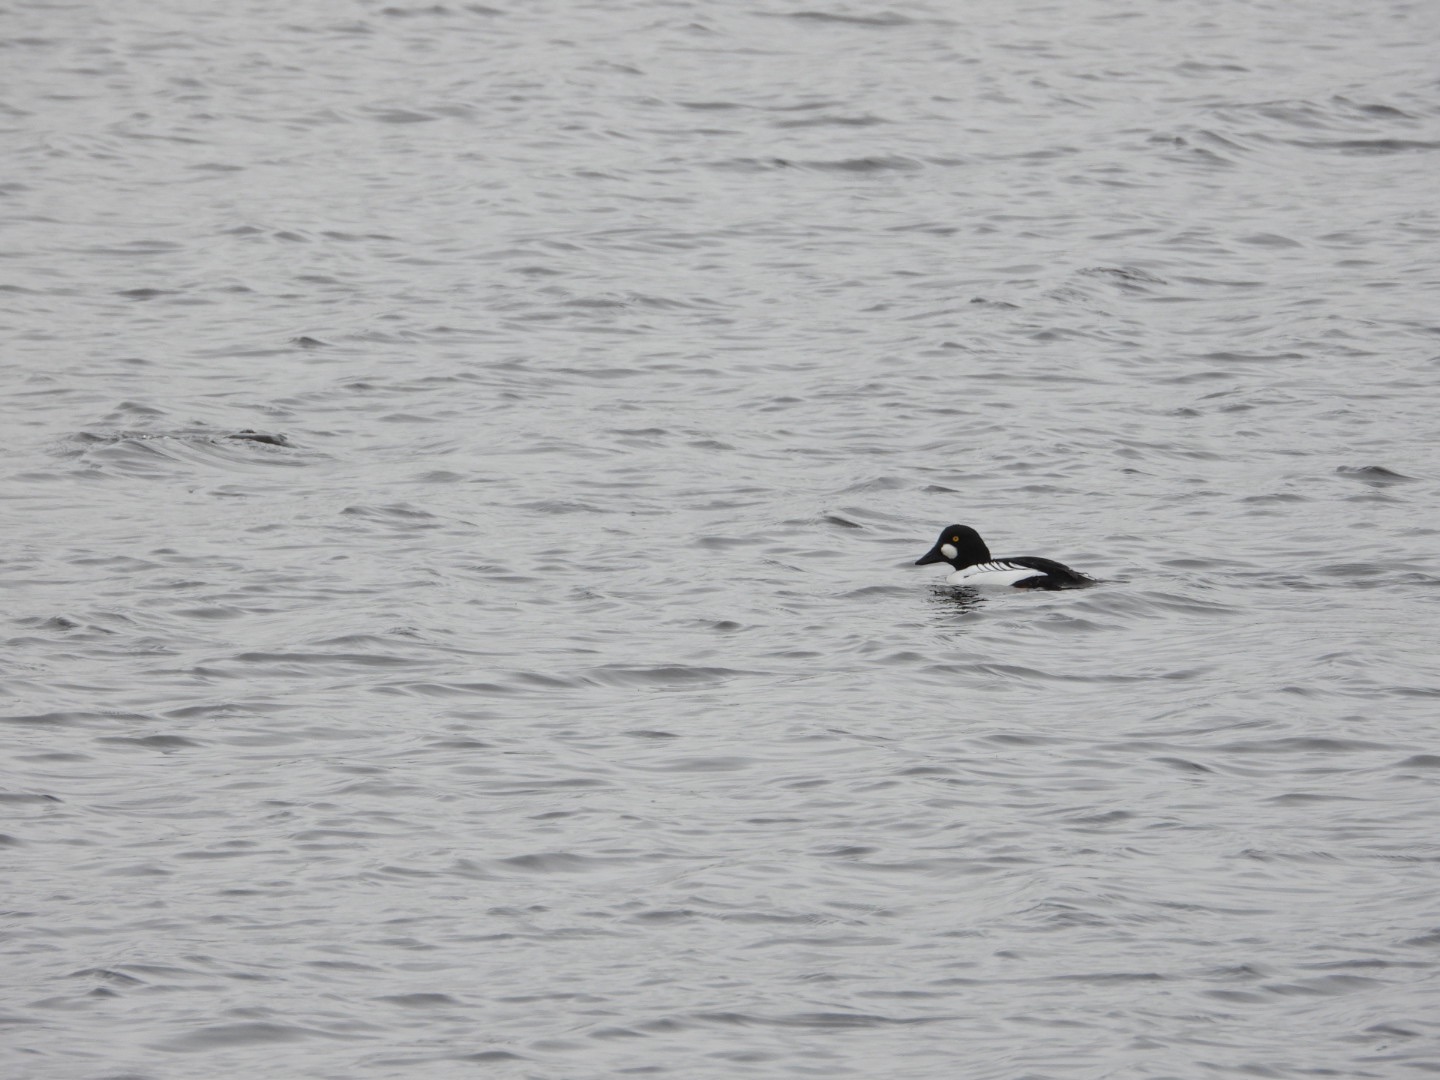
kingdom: Animalia
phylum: Chordata
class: Aves
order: Anseriformes
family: Anatidae
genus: Bucephala
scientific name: Bucephala clangula
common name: Hvinand
